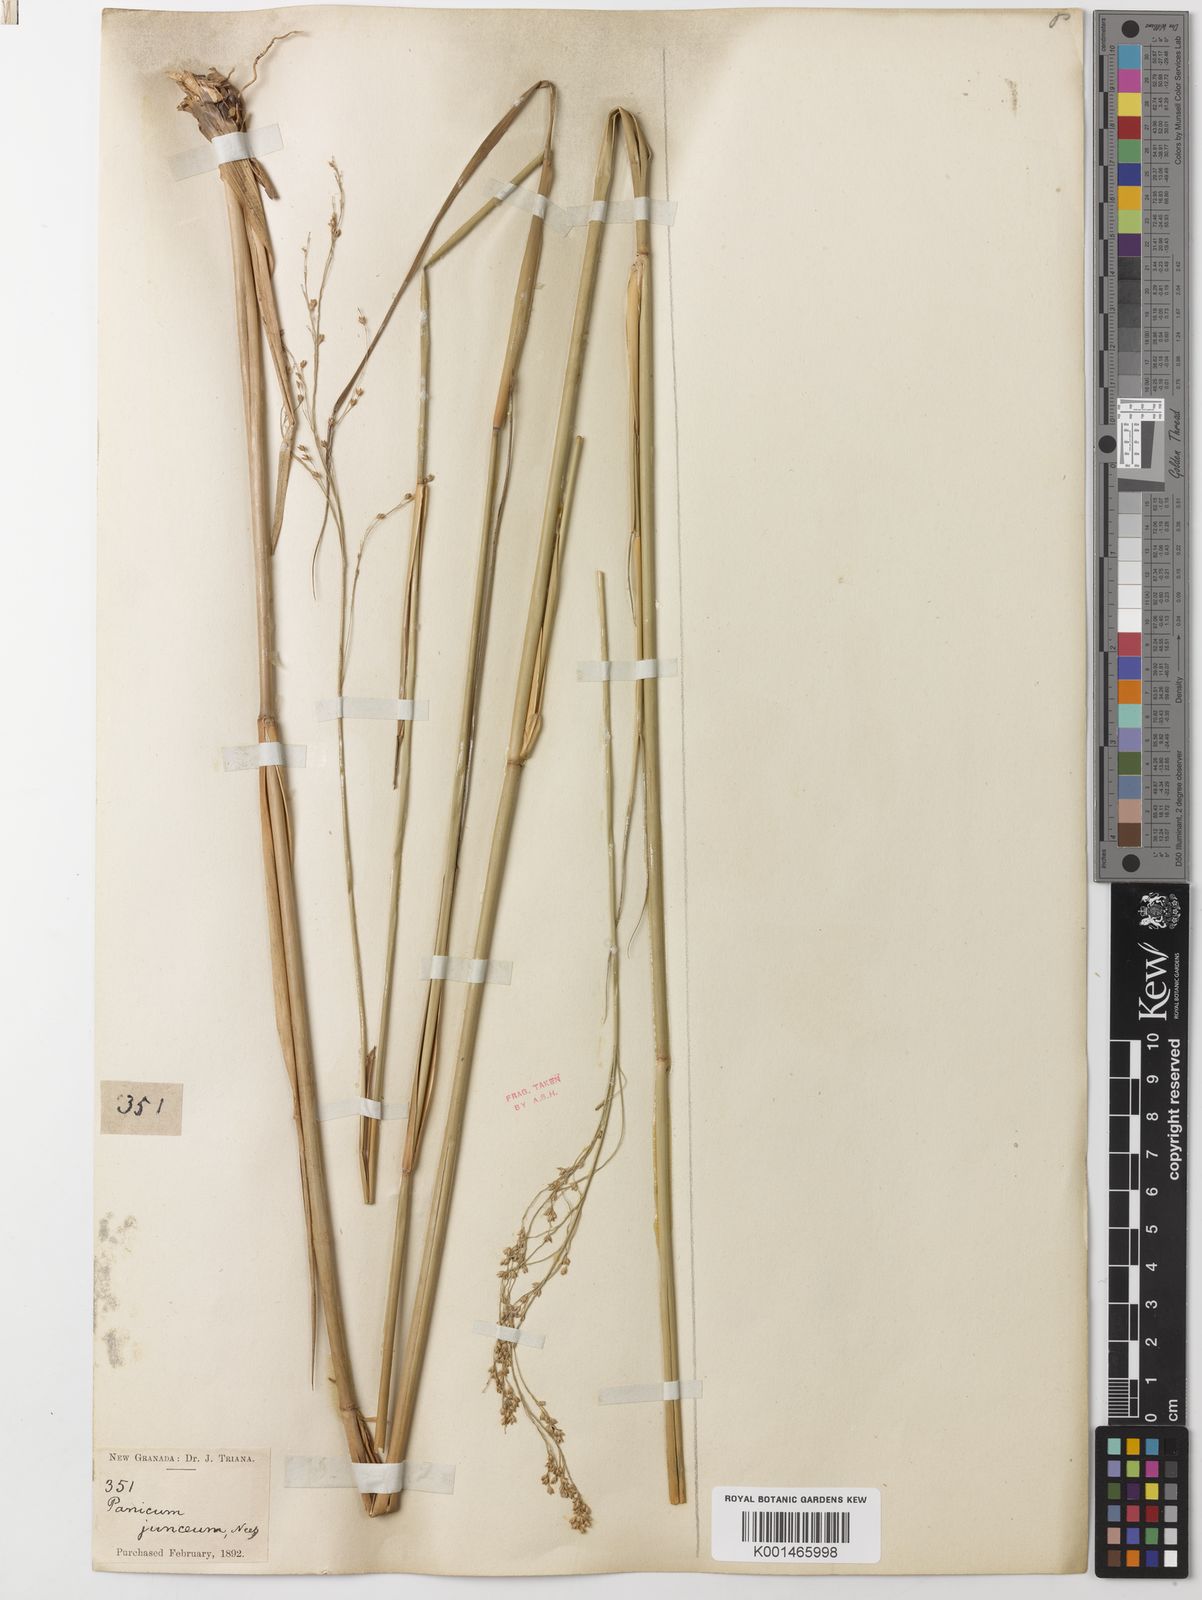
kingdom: Plantae
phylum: Tracheophyta
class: Liliopsida
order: Poales
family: Poaceae
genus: Panicum
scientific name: Panicum tricholaenoides
